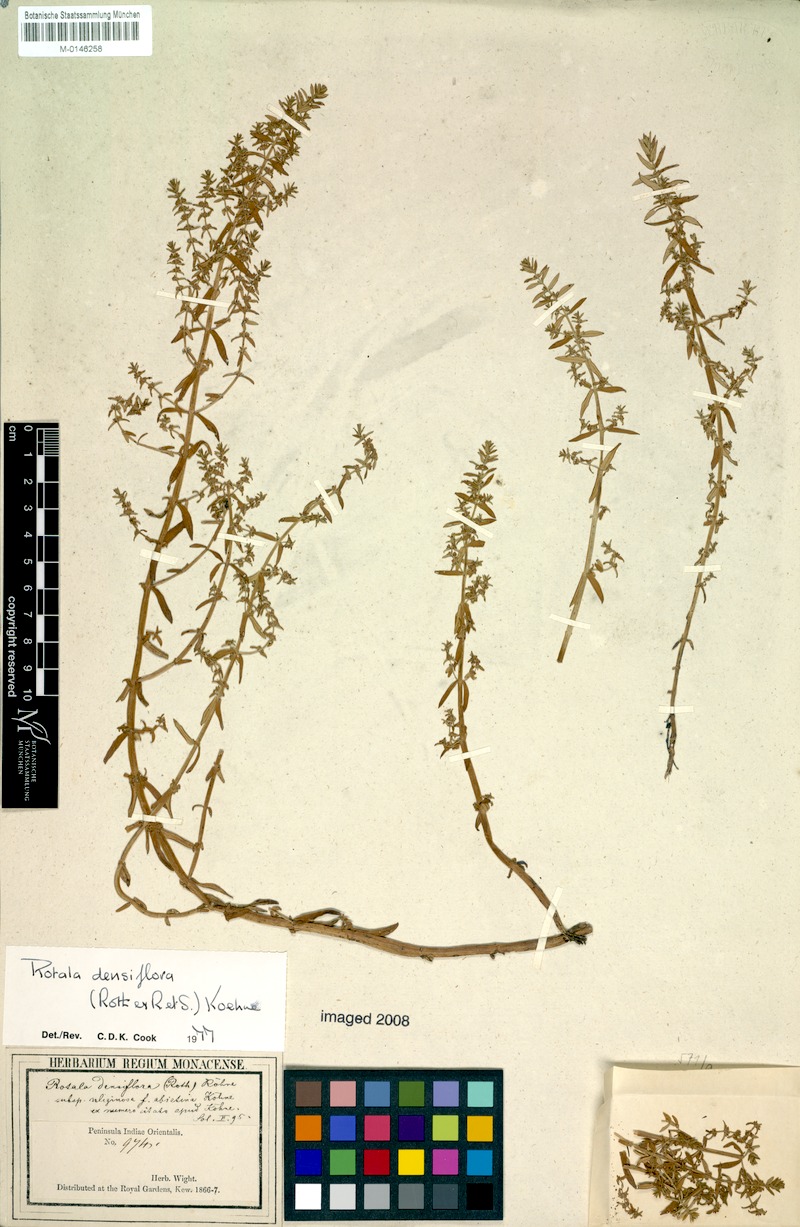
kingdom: Plantae
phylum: Tracheophyta
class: Magnoliopsida
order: Myrtales
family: Lythraceae
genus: Rotala
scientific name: Rotala densiflora
